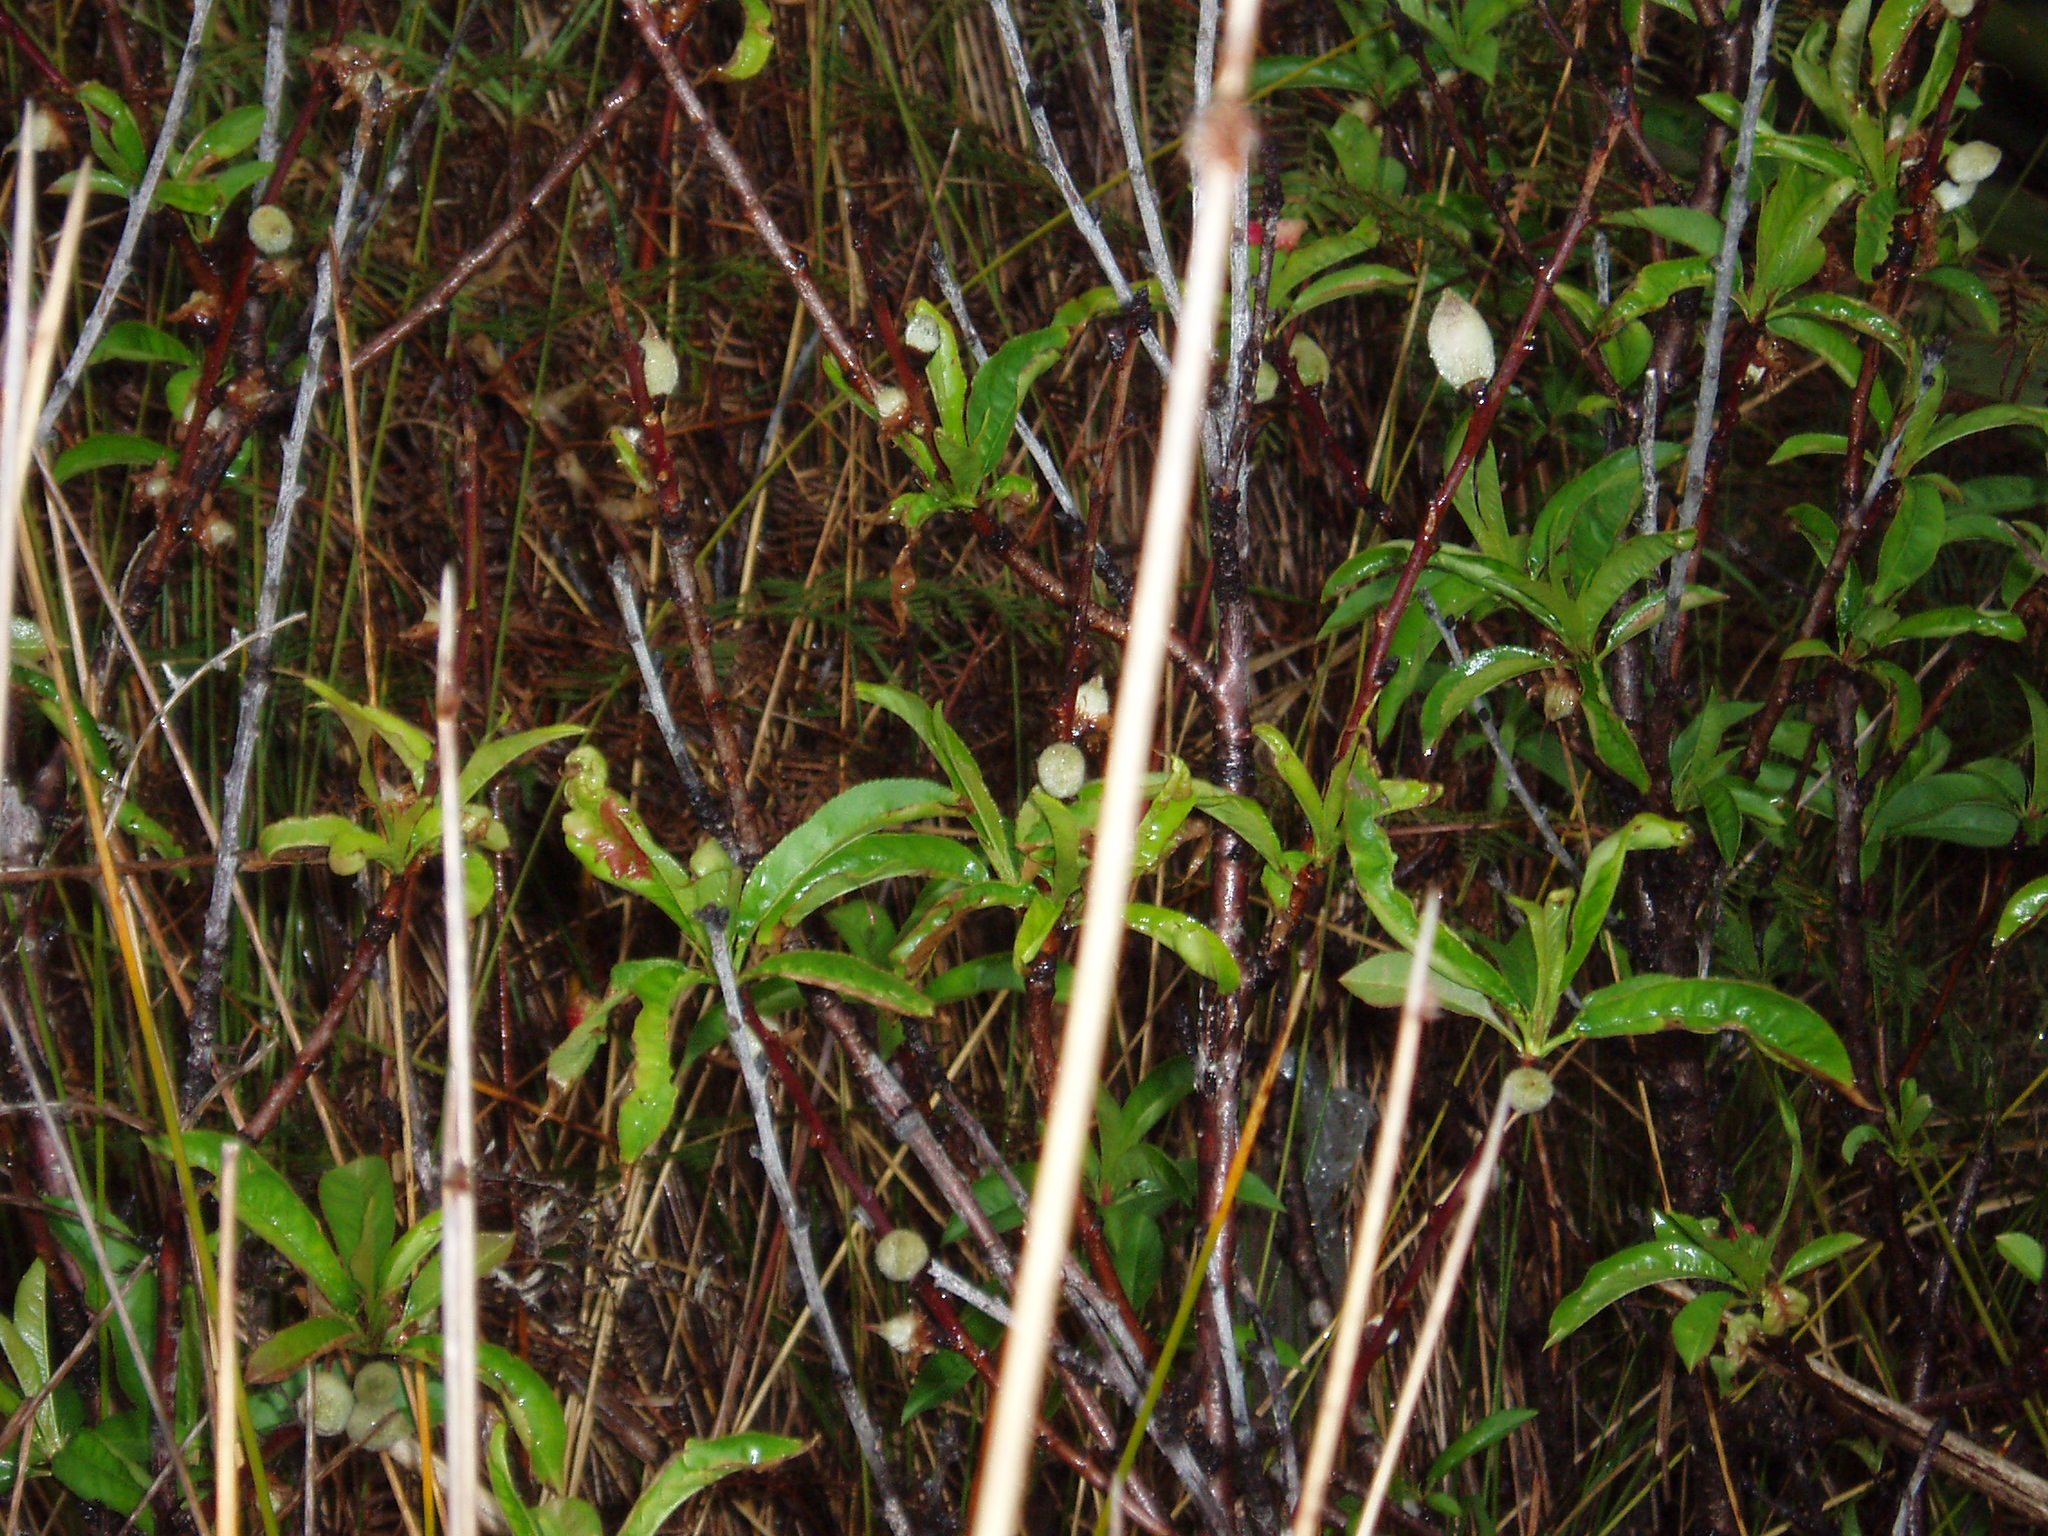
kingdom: Plantae
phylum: Tracheophyta
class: Magnoliopsida
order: Rosales
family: Rosaceae
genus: Prunus
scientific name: Prunus persica
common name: Peach
